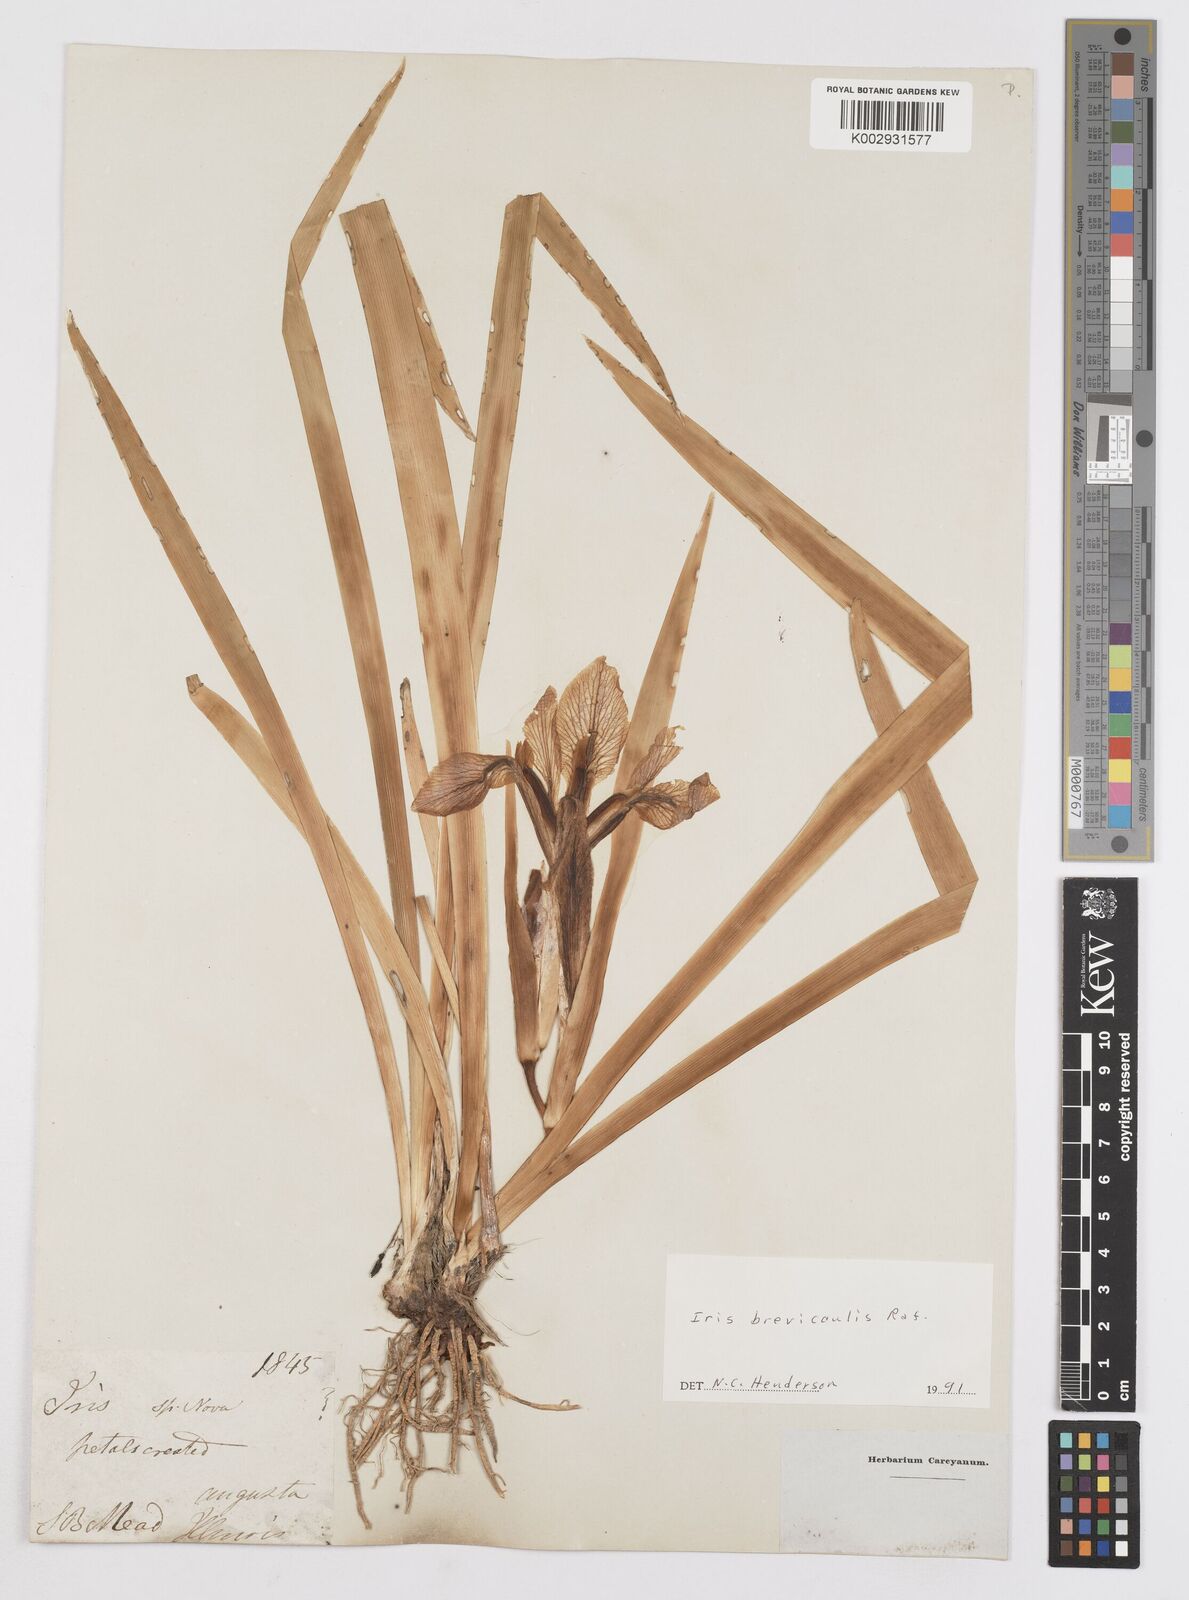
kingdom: Plantae
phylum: Tracheophyta
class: Liliopsida
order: Asparagales
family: Iridaceae
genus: Iris
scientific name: Iris brevicaulis
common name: Zigzag iris
